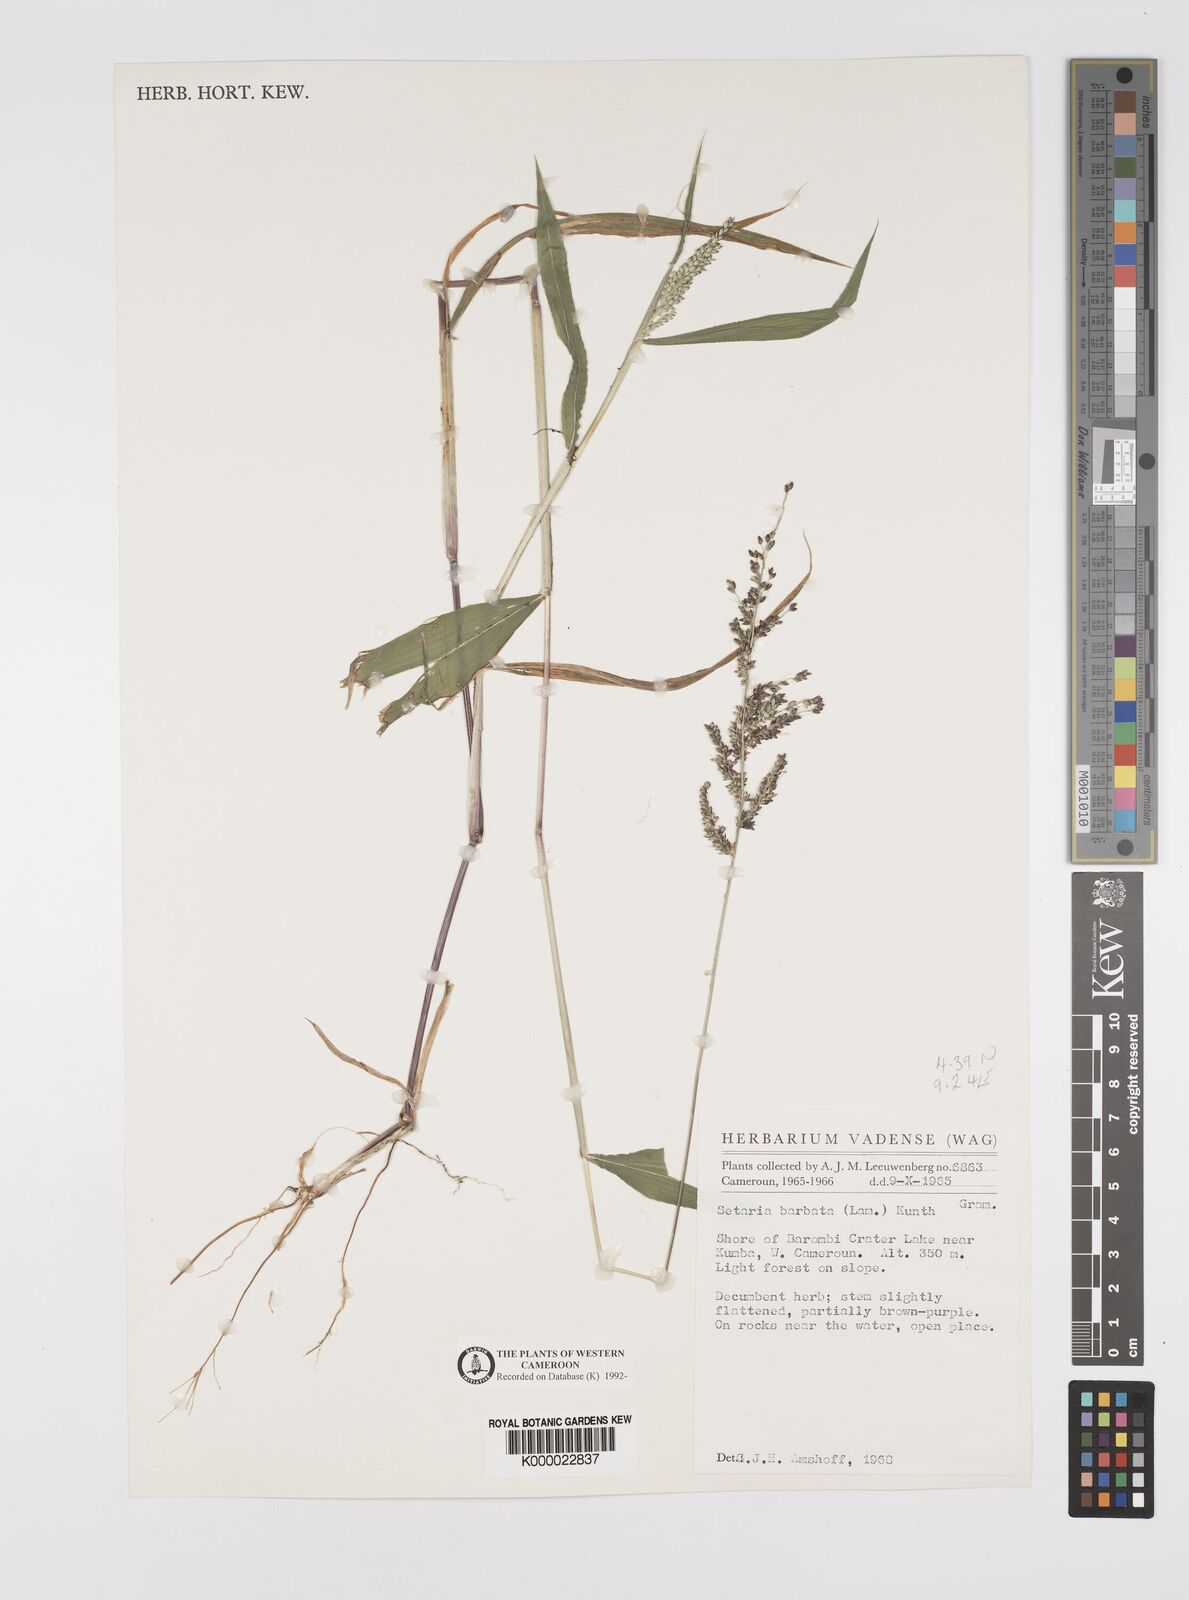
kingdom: Plantae
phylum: Tracheophyta
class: Liliopsida
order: Poales
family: Poaceae
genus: Setaria
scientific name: Setaria barbata
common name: East indian bristlegrass
